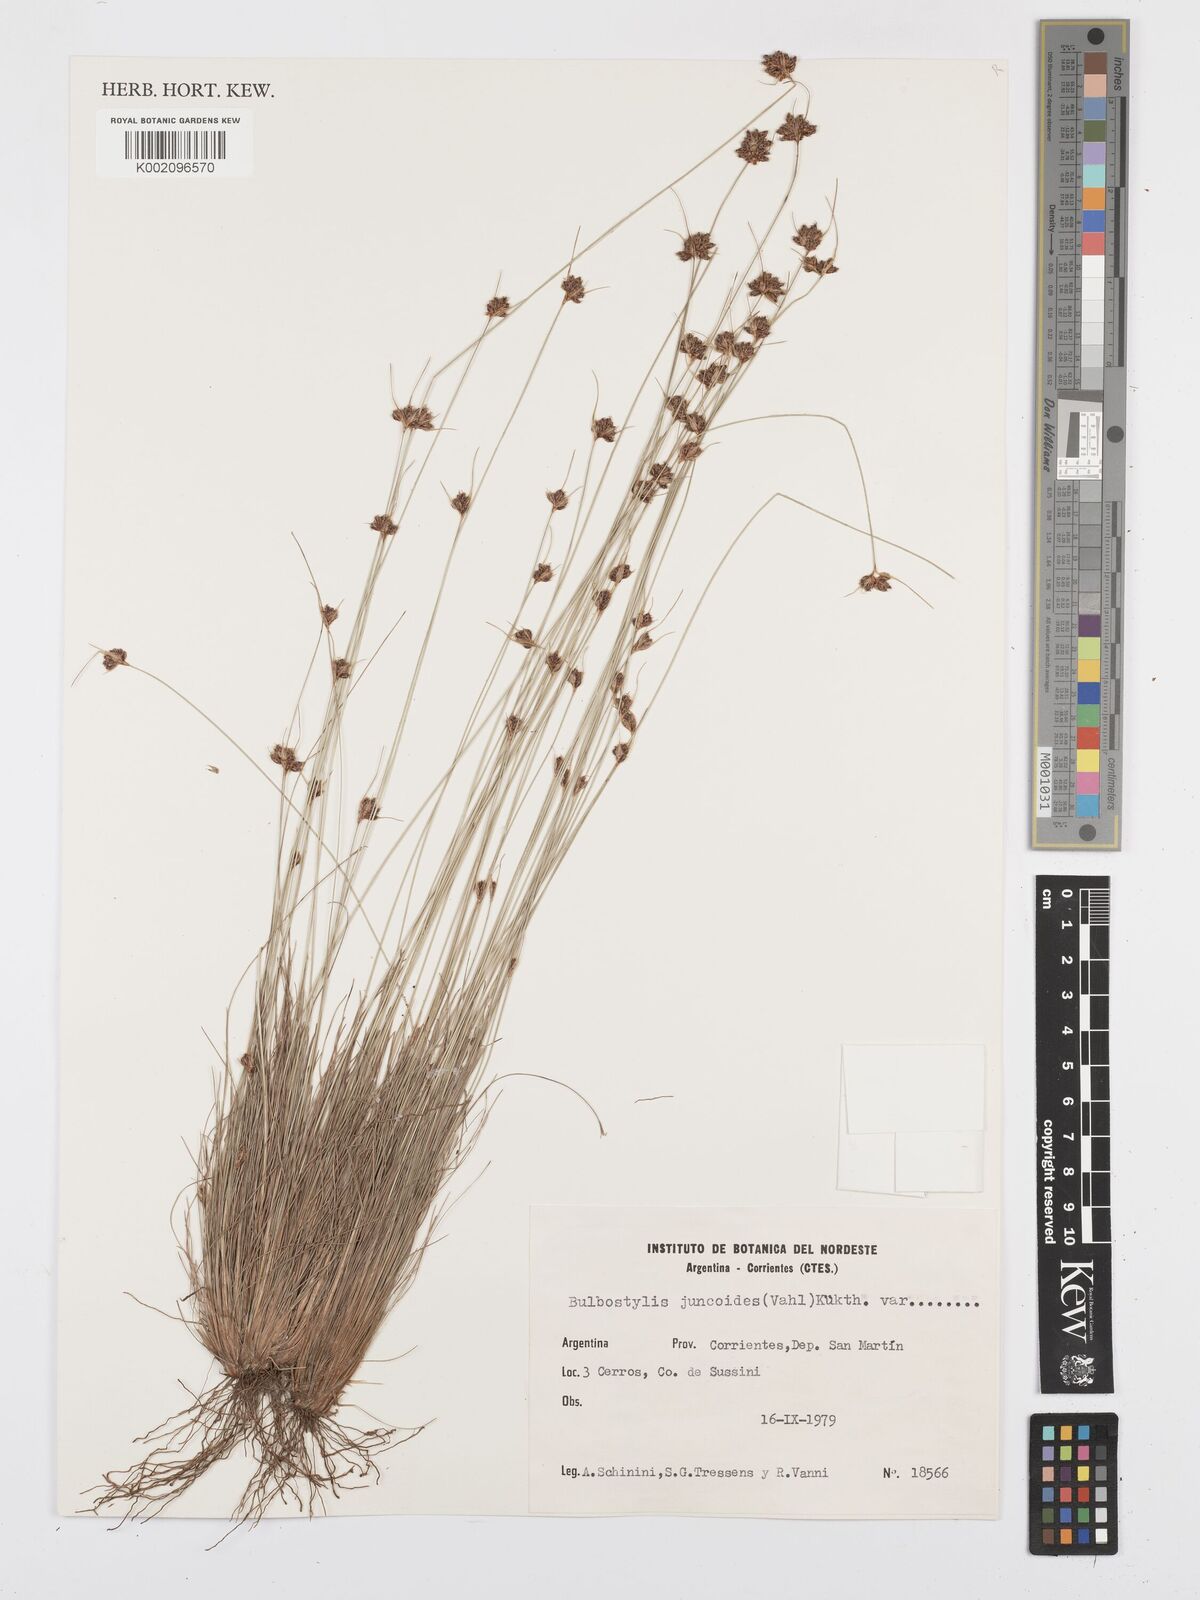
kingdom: Plantae
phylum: Tracheophyta
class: Liliopsida
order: Poales
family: Cyperaceae
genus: Bulbostylis
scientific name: Bulbostylis juncoides
